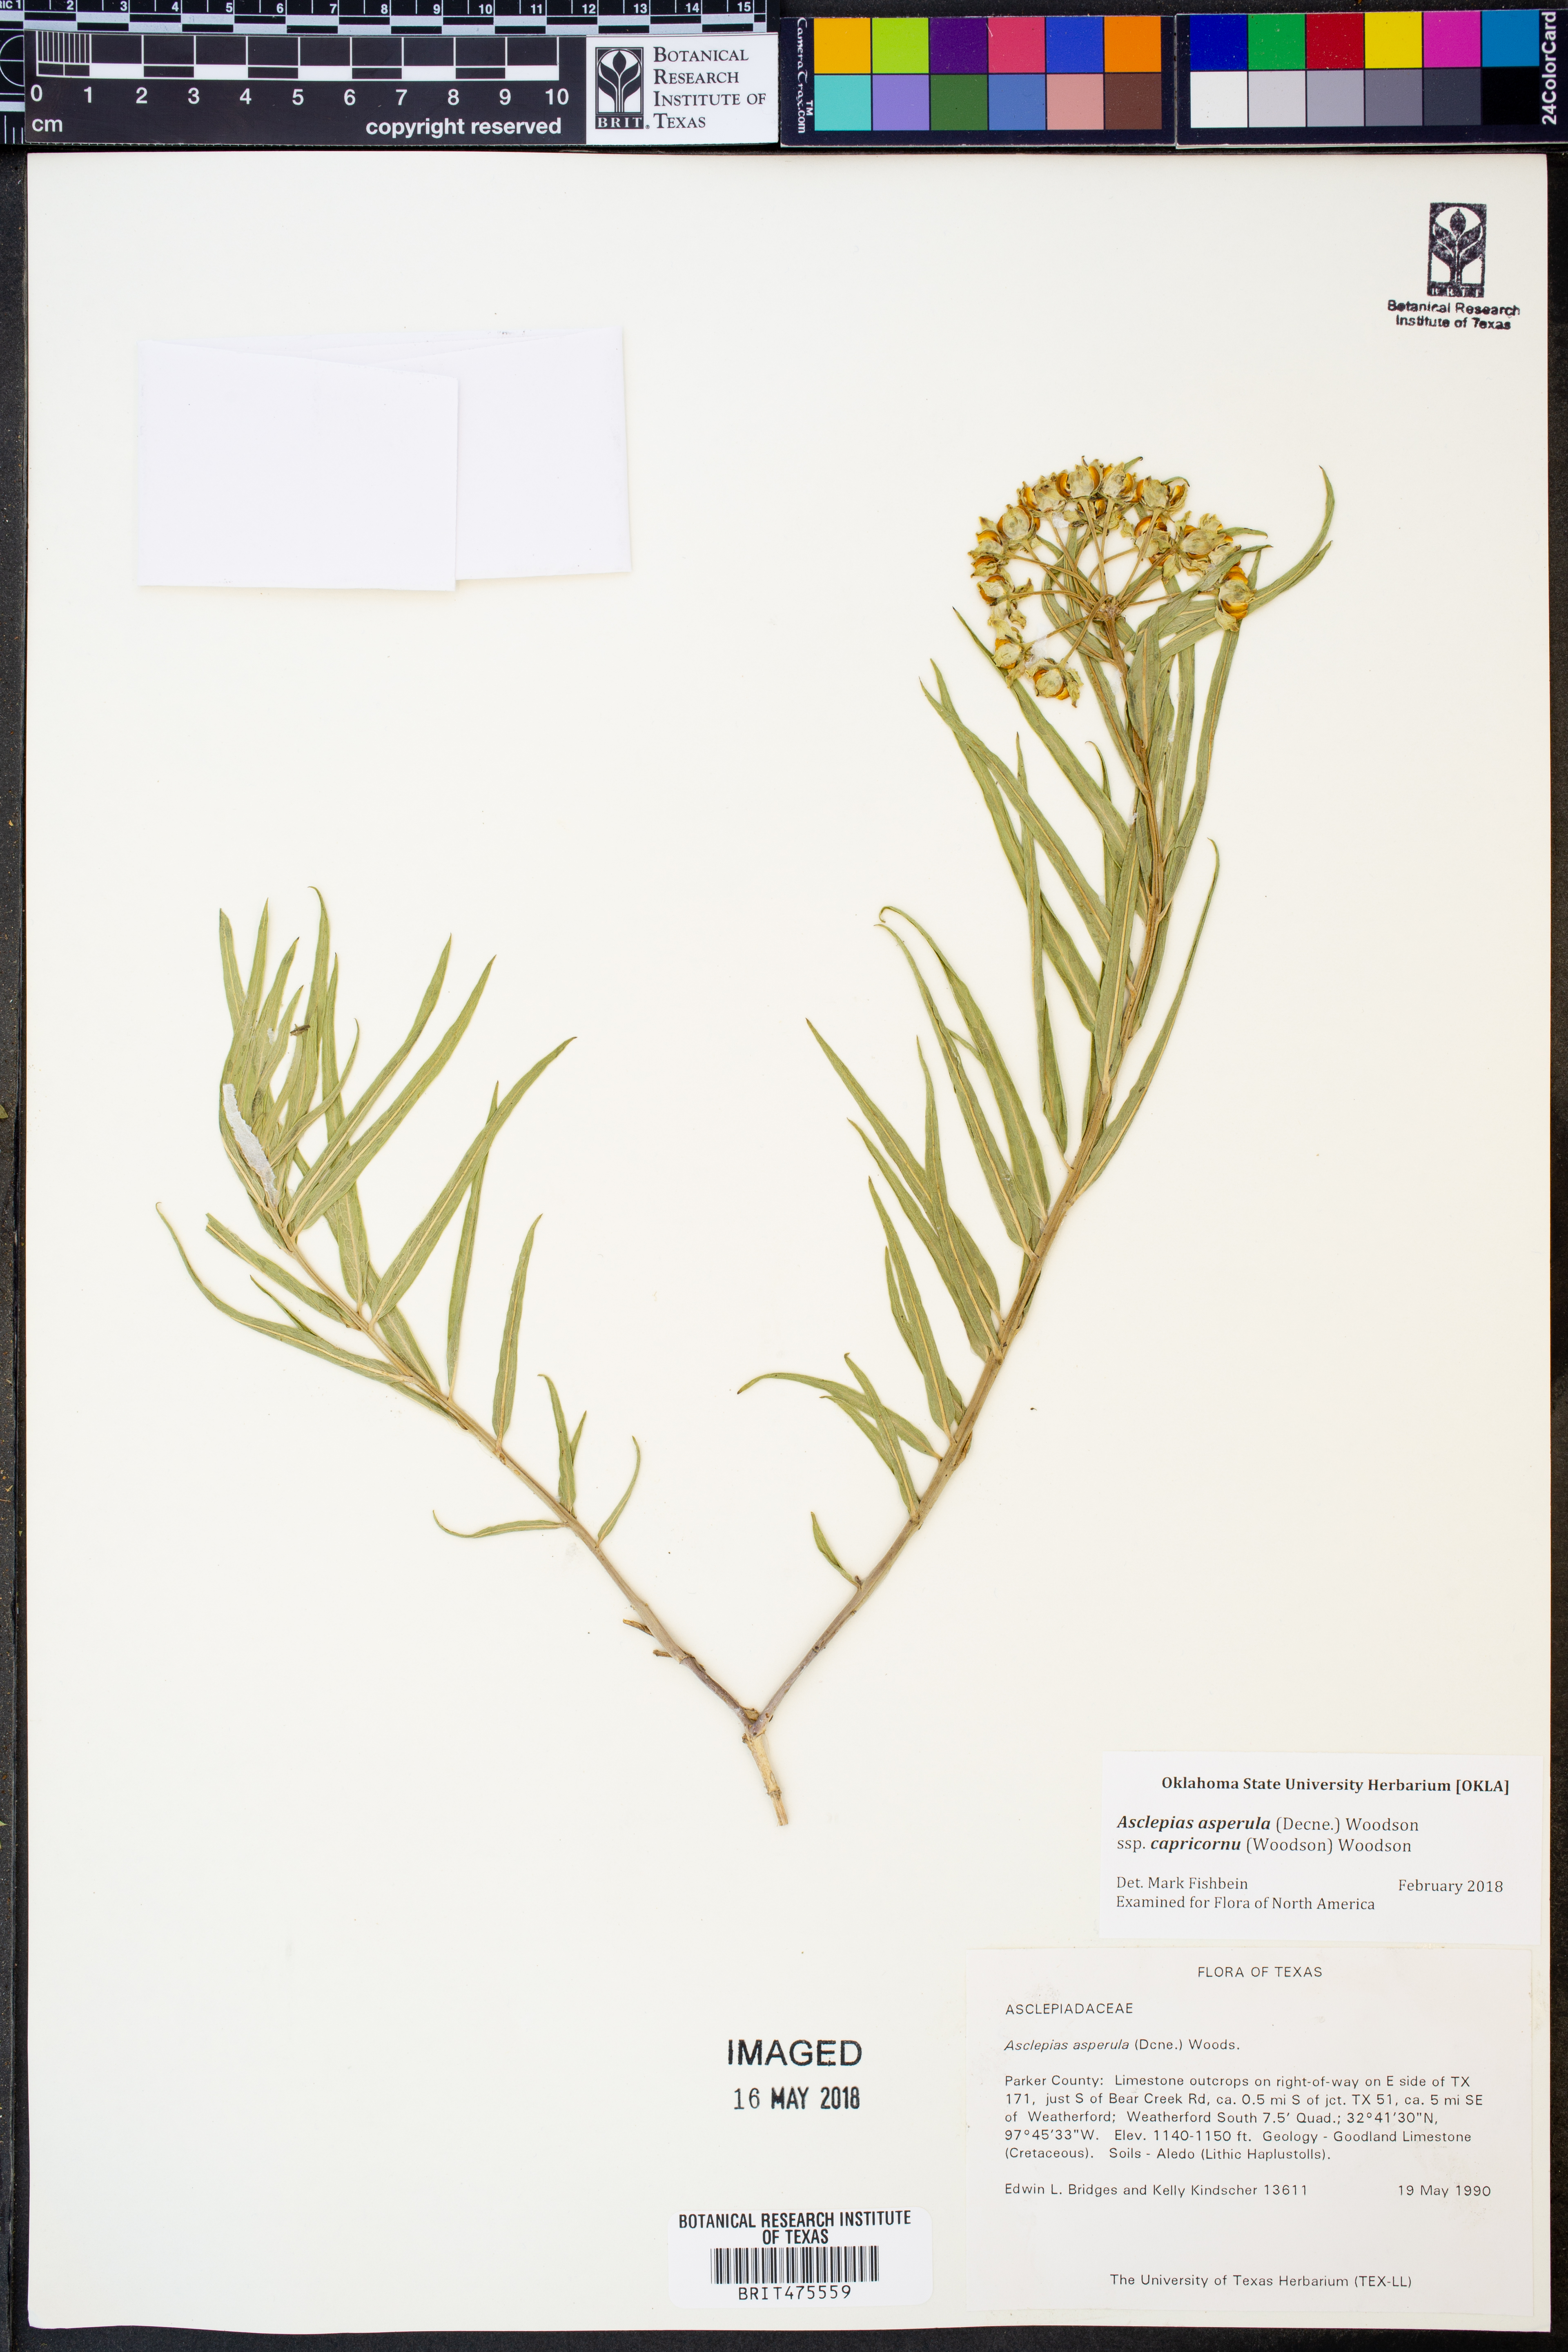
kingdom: Plantae
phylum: Tracheophyta
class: Magnoliopsida
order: Gentianales
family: Apocynaceae
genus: Asclepias
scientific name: Asclepias asperula
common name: Antelope horns
